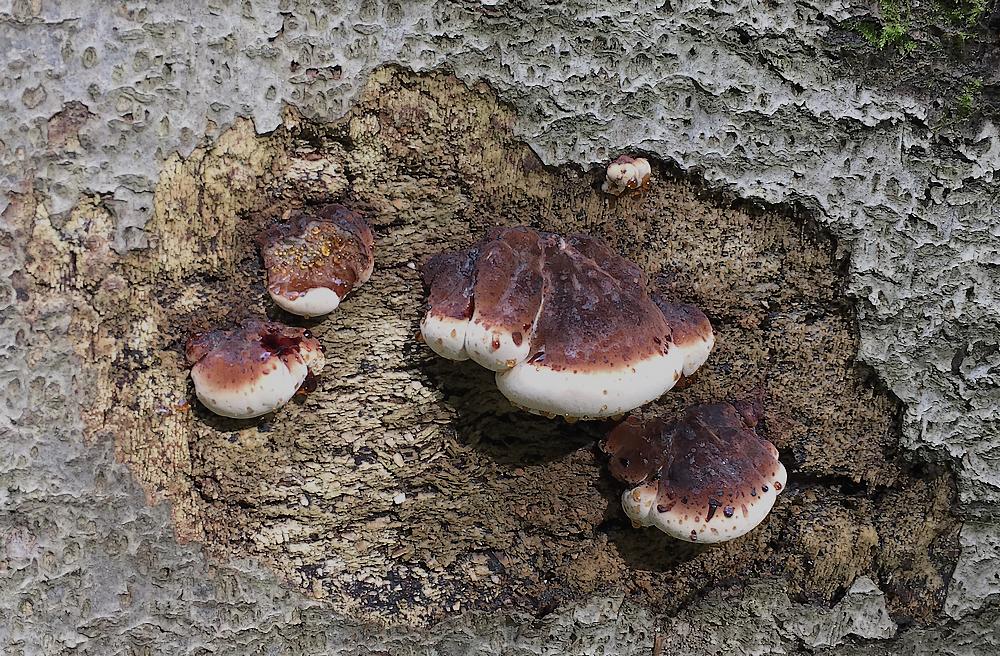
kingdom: Fungi
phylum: Basidiomycota
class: Agaricomycetes
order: Polyporales
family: Ischnodermataceae
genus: Ischnoderma
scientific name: Ischnoderma resinosum
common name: løv-tjæreporesvamp
